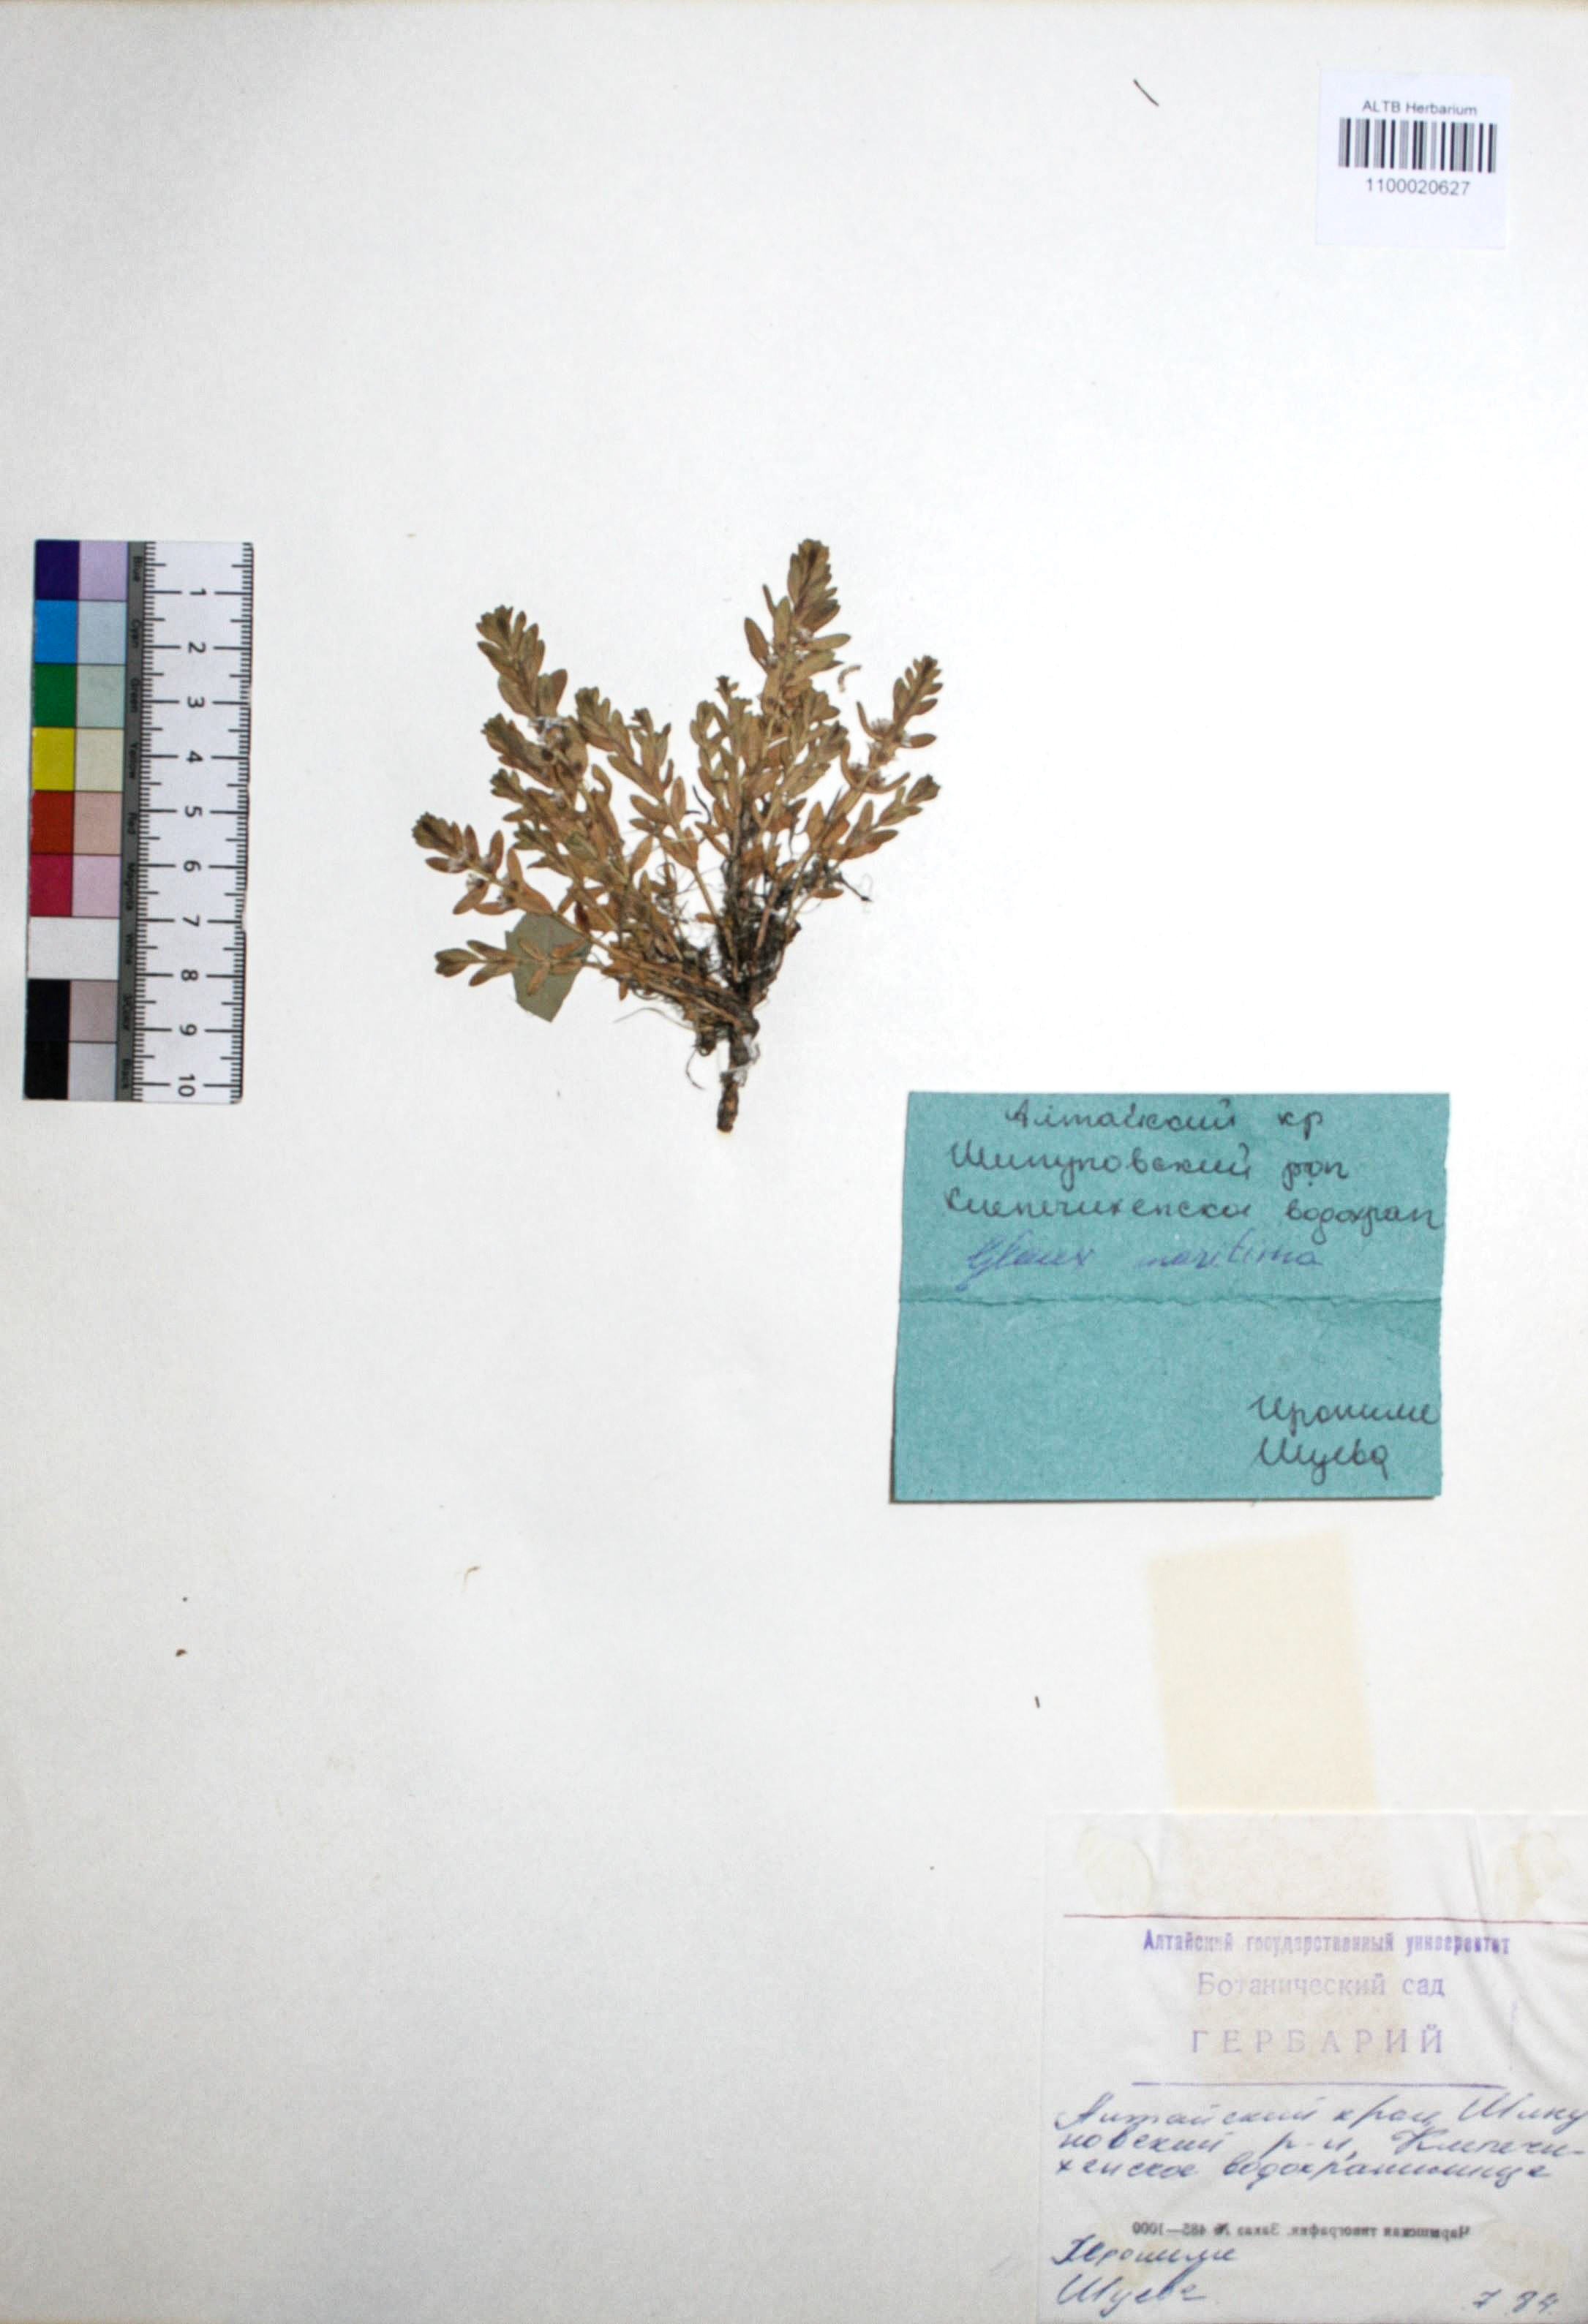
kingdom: Plantae
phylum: Tracheophyta
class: Magnoliopsida
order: Ericales
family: Primulaceae
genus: Lysimachia
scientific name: Lysimachia maritima
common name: Sea milkwort
